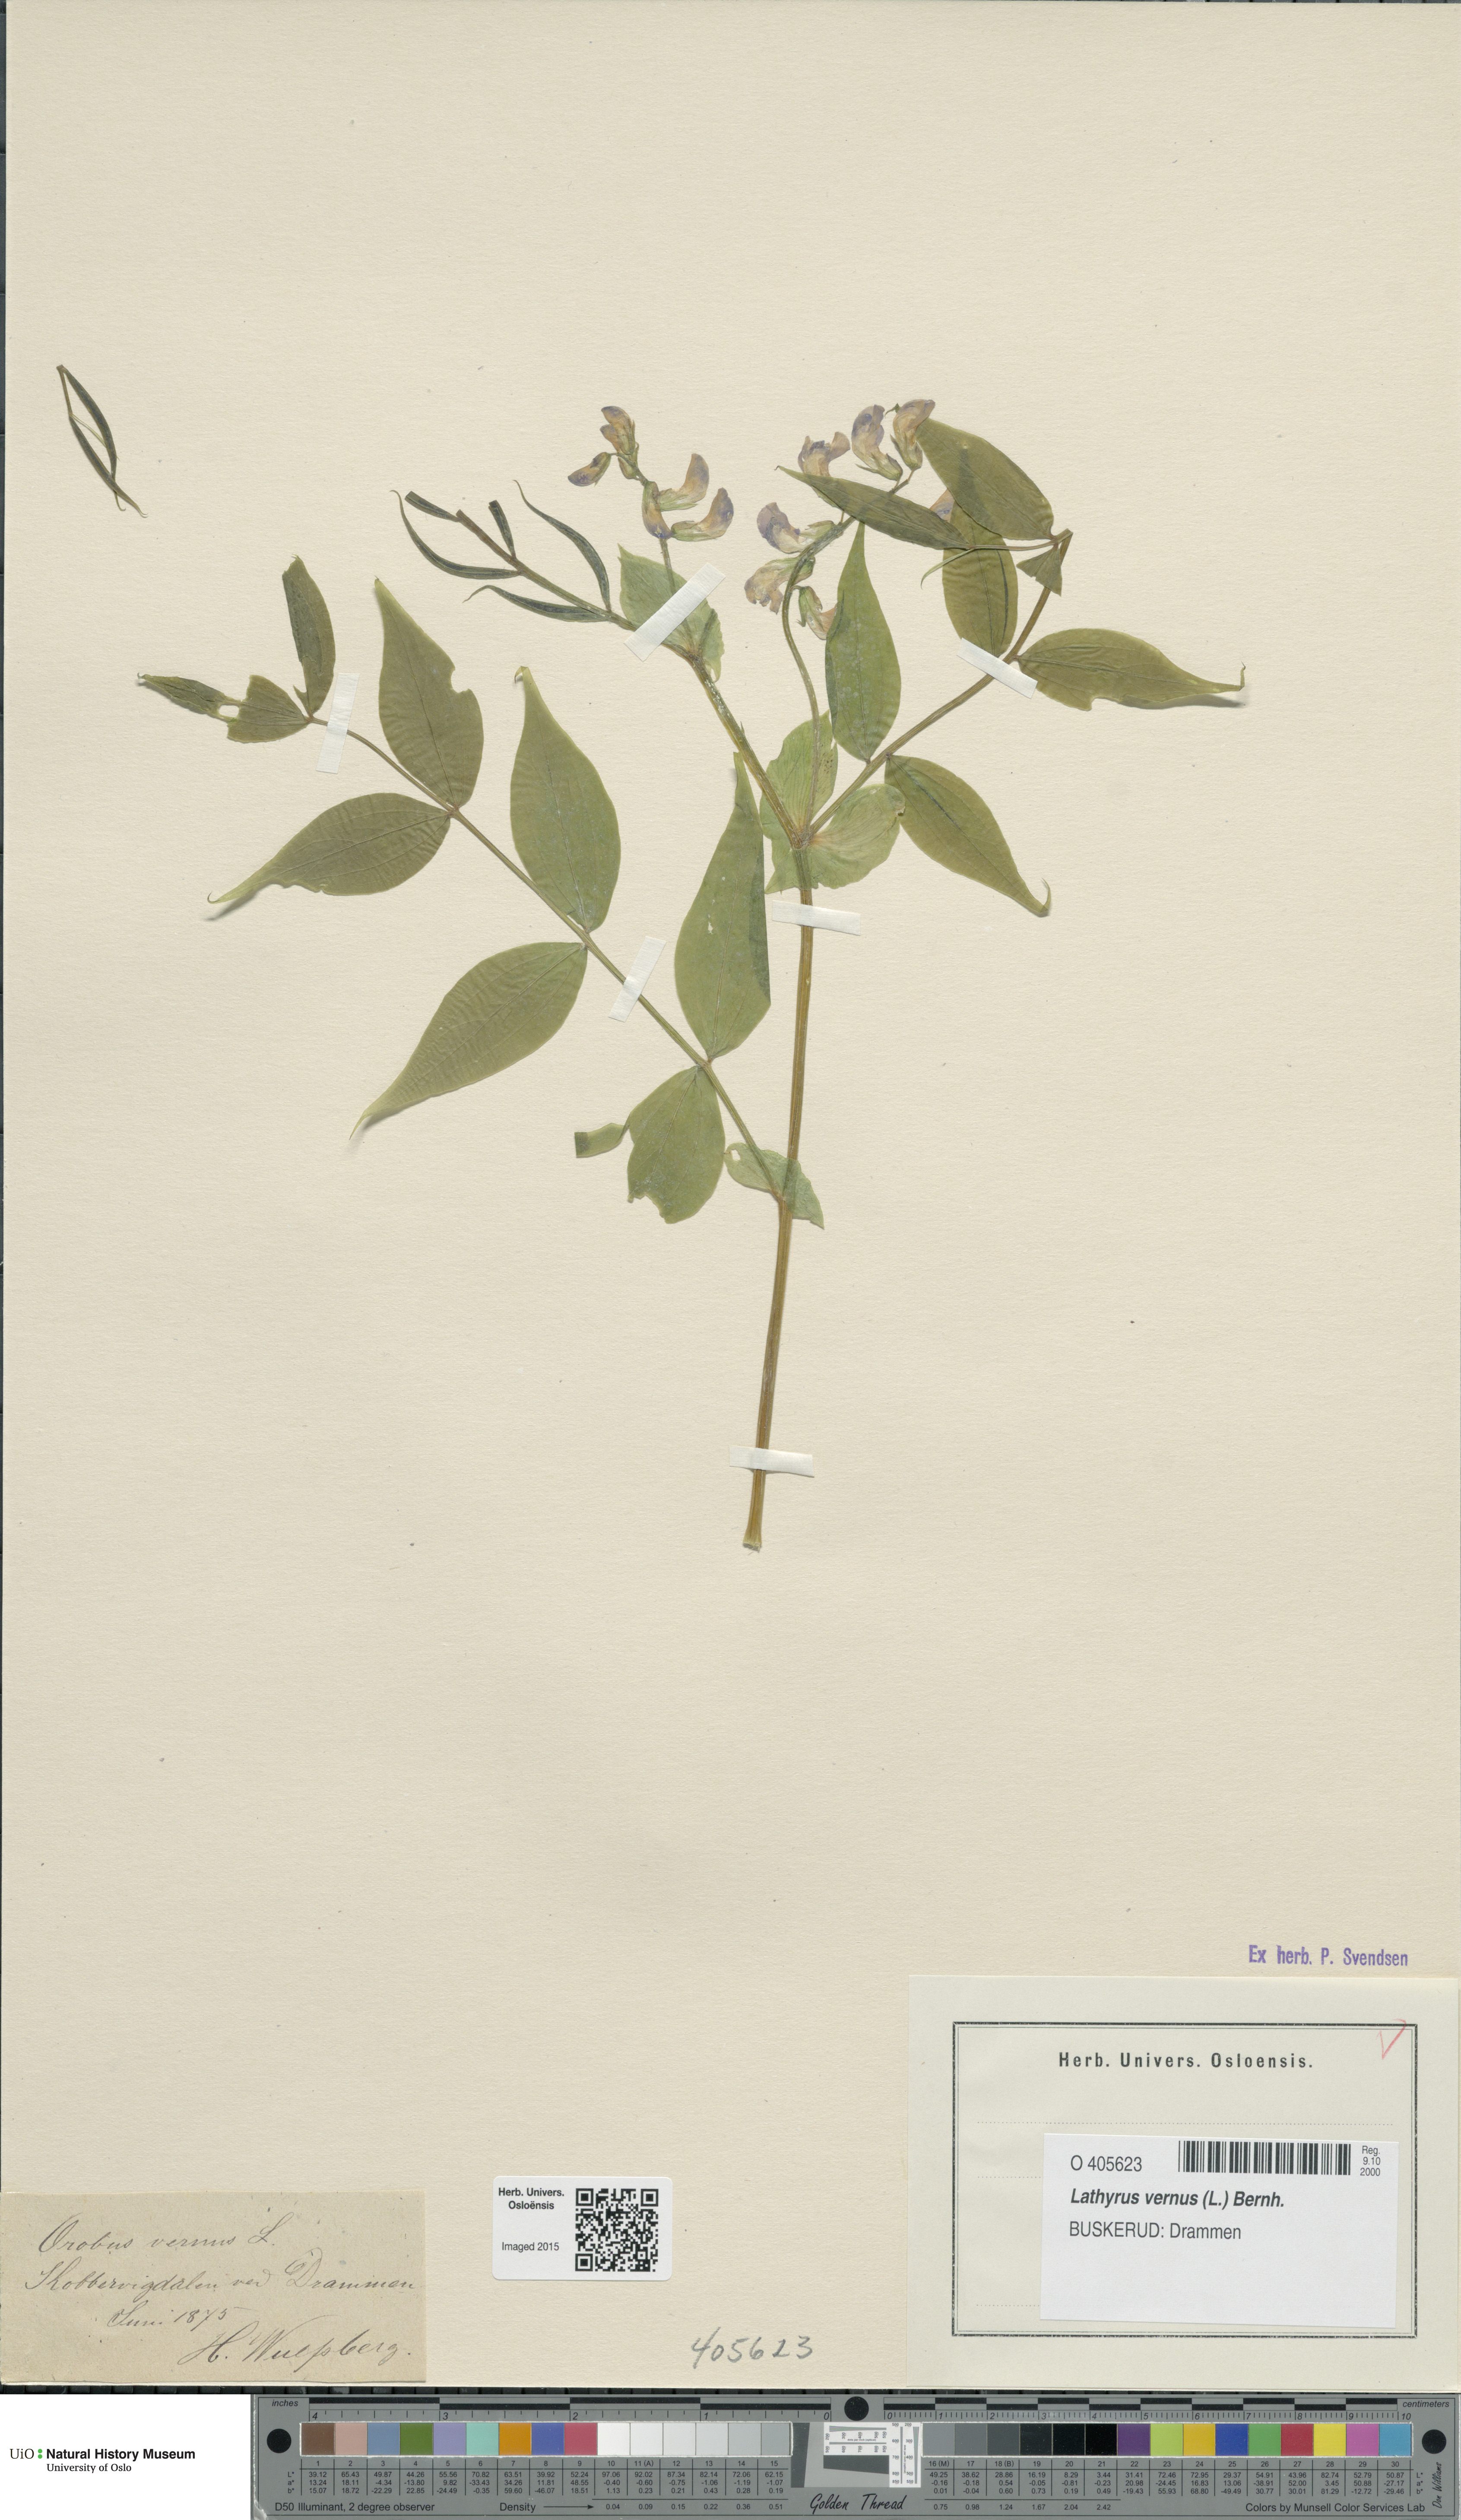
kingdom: Plantae
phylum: Tracheophyta
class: Magnoliopsida
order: Fabales
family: Fabaceae
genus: Lathyrus
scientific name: Lathyrus vernus
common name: Spring pea
